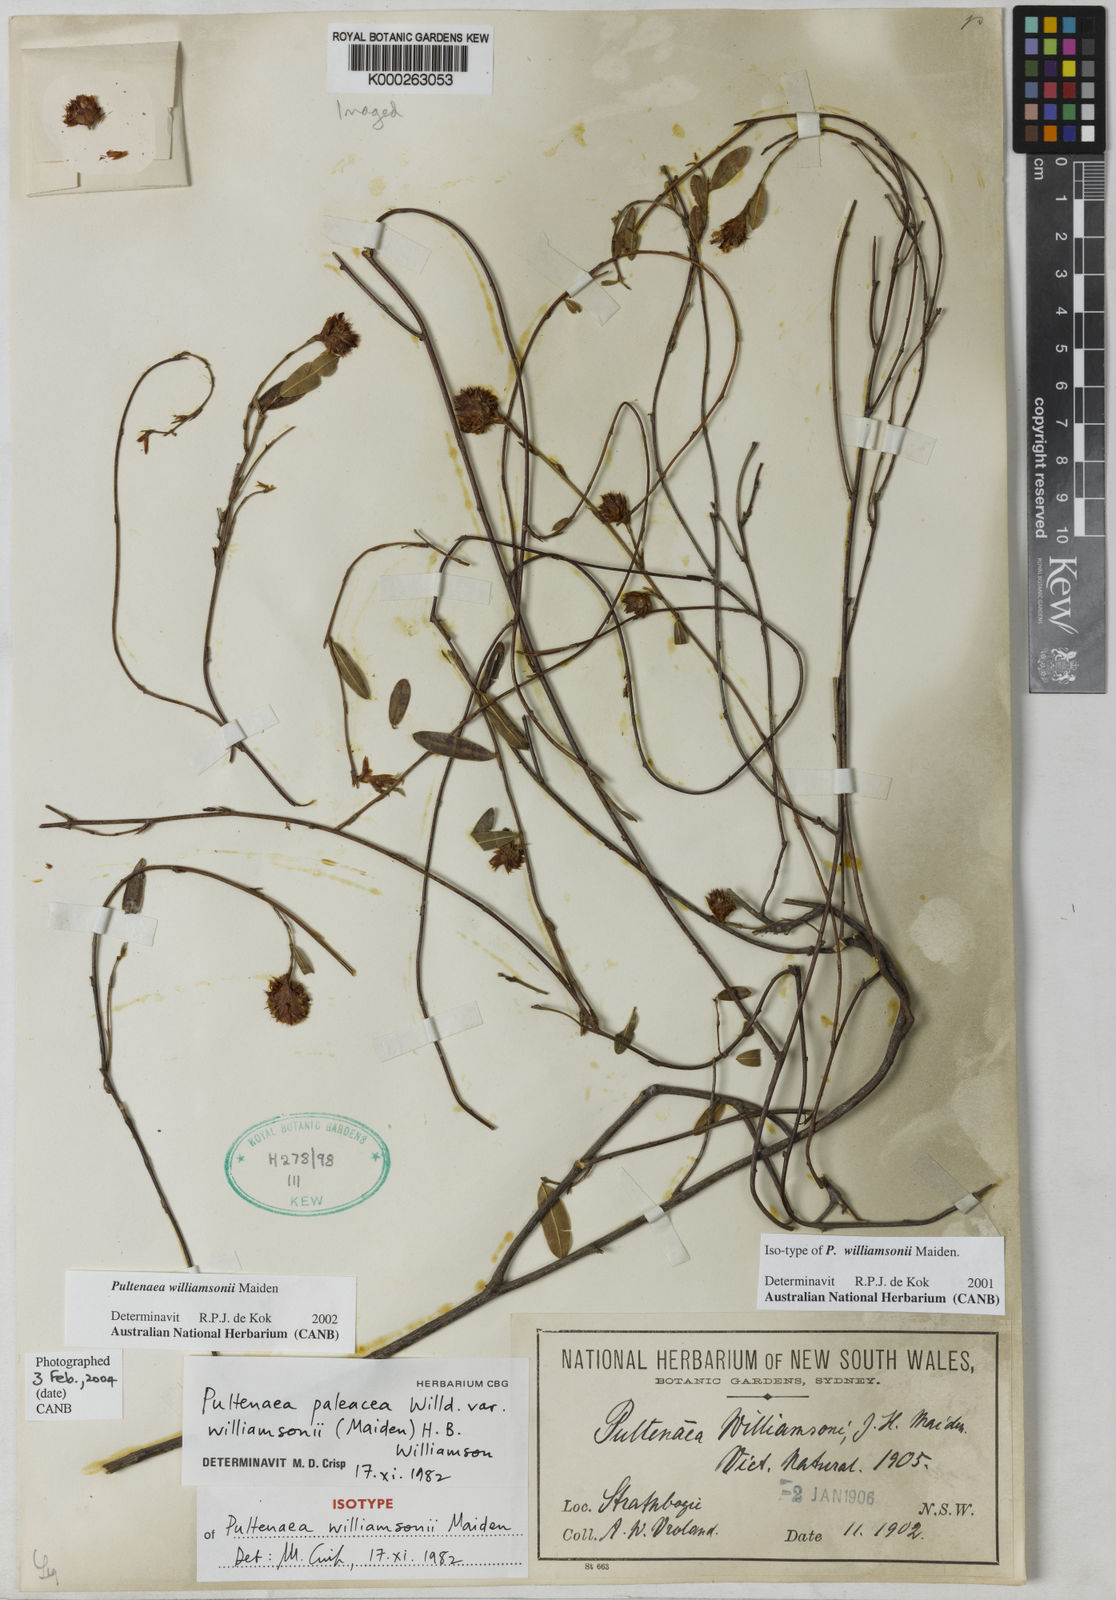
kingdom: Plantae
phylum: Tracheophyta
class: Magnoliopsida
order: Fabales
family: Fabaceae
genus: Pultenaea
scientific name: Pultenaea williamsonii
